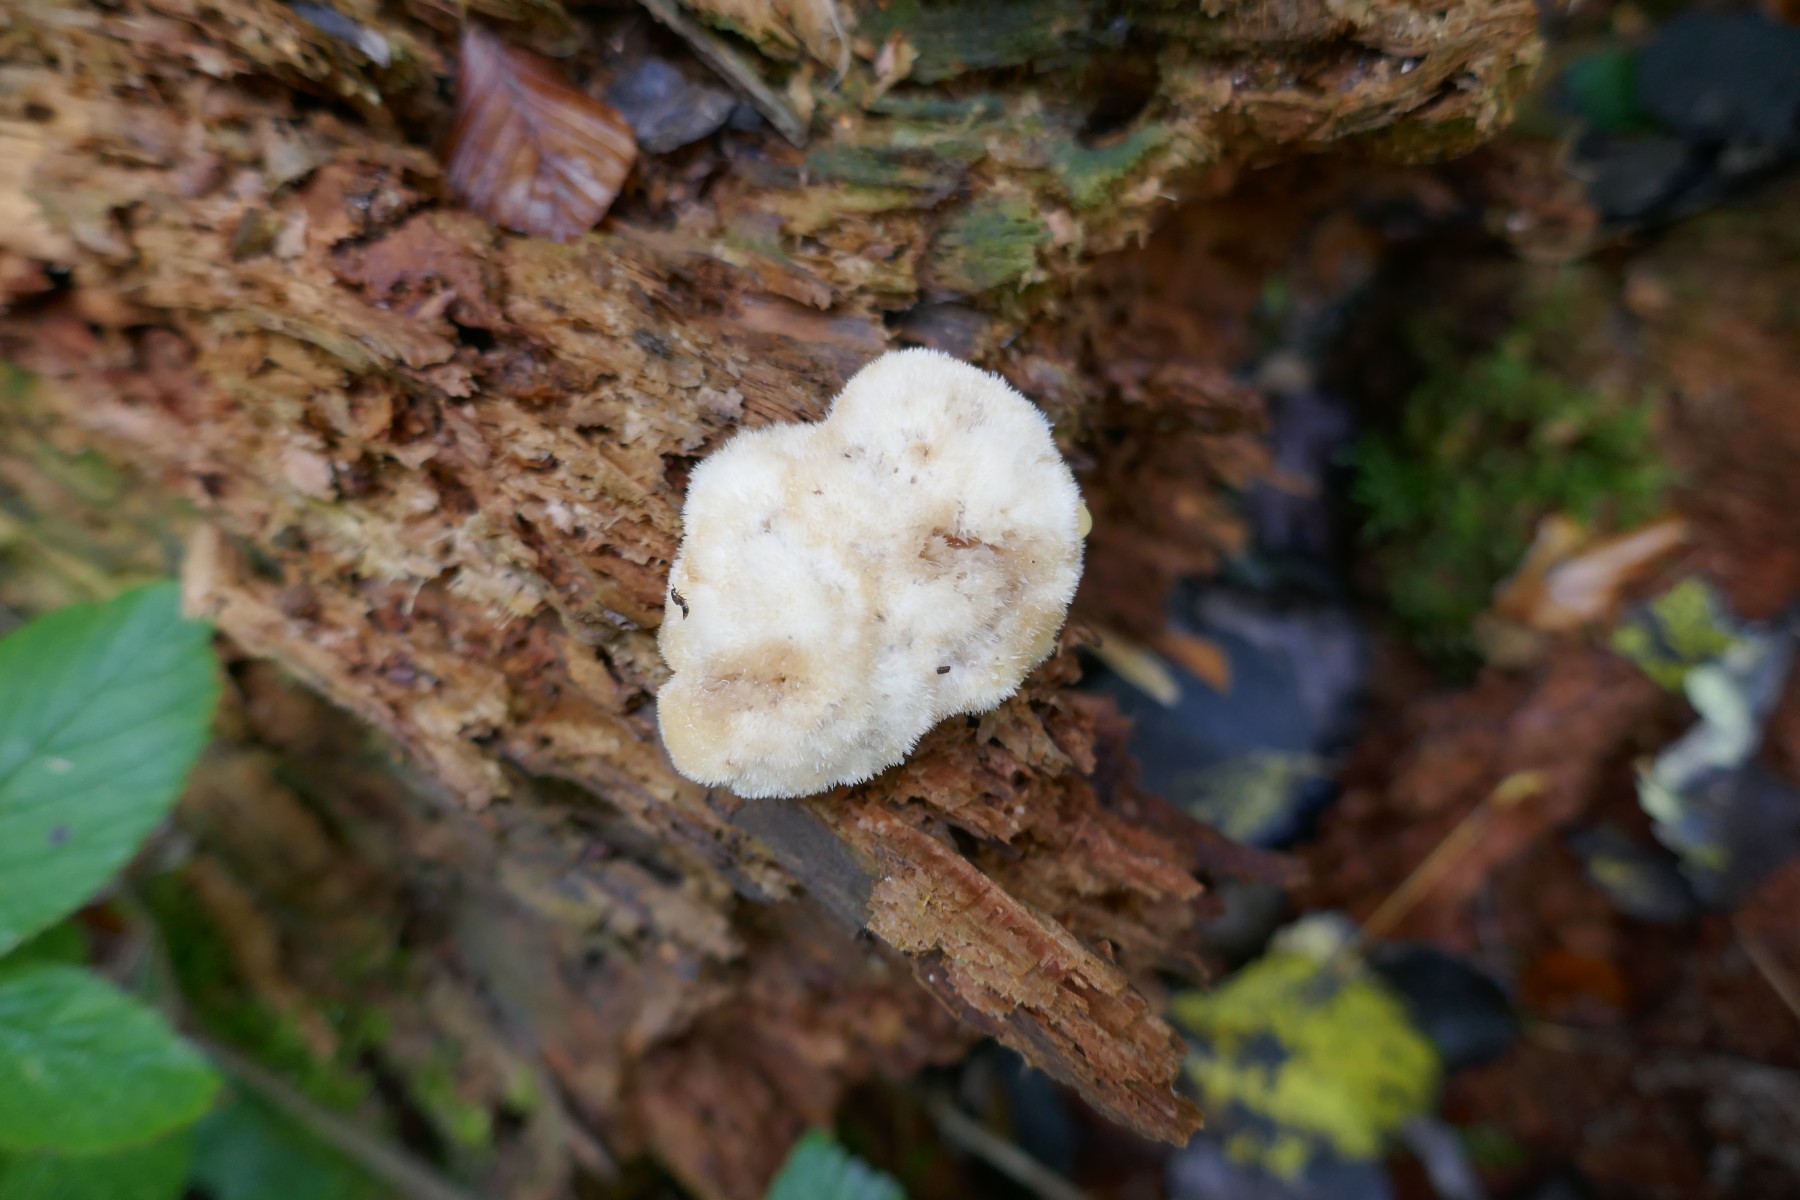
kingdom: Fungi
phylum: Basidiomycota
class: Agaricomycetes
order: Polyporales
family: Dacryobolaceae
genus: Postia
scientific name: Postia ptychogaster
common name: støvende kødporesvamp
